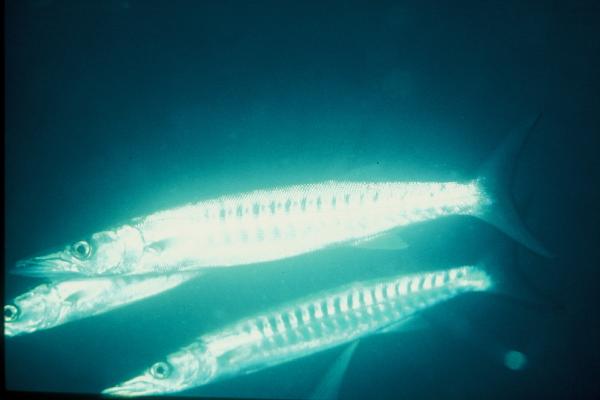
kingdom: Animalia
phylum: Chordata
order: Perciformes
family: Sphyraenidae
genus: Sphyraena
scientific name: Sphyraena qenie
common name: Blackfin barracuda
